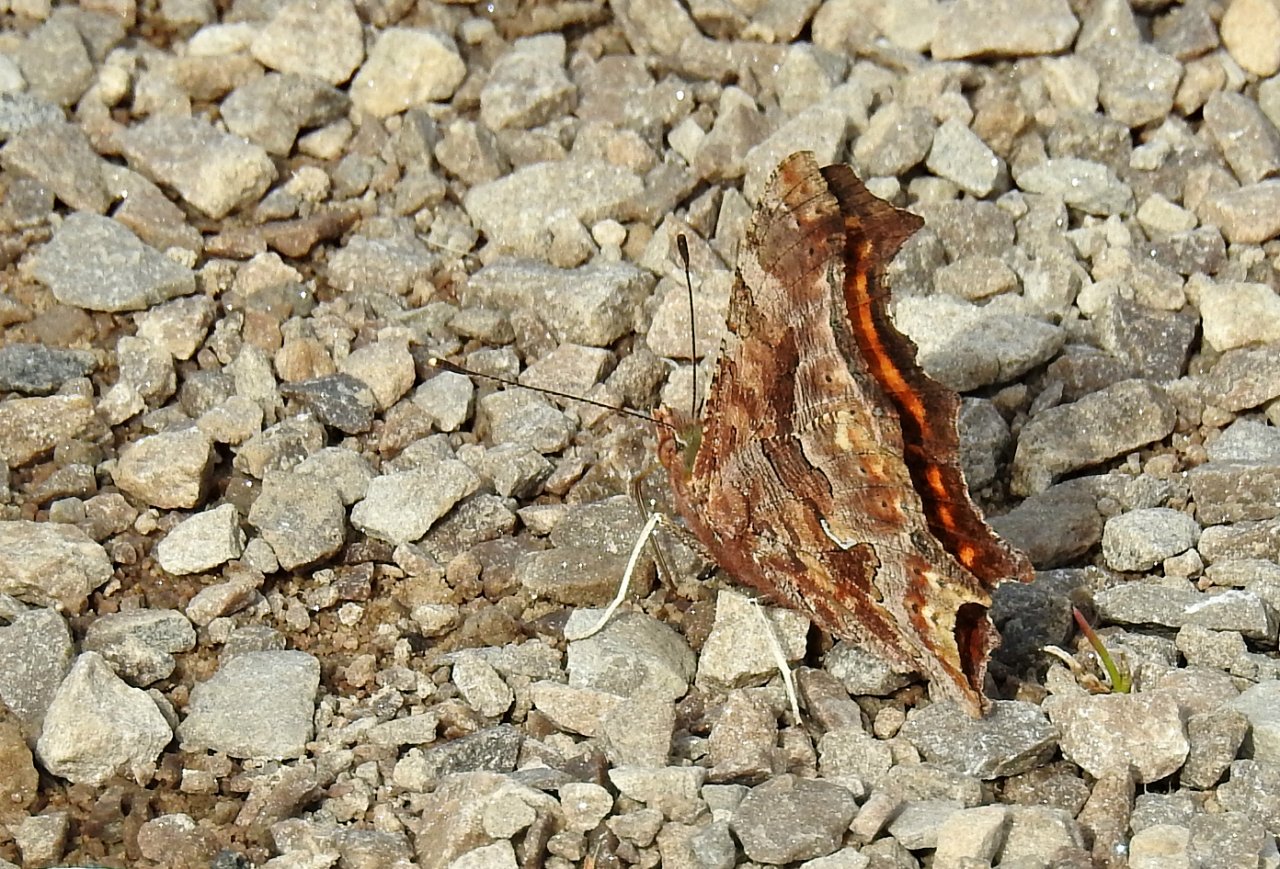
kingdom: Animalia
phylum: Arthropoda
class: Insecta
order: Lepidoptera
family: Nymphalidae
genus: Polygonia
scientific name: Polygonia comma
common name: Eastern Comma
